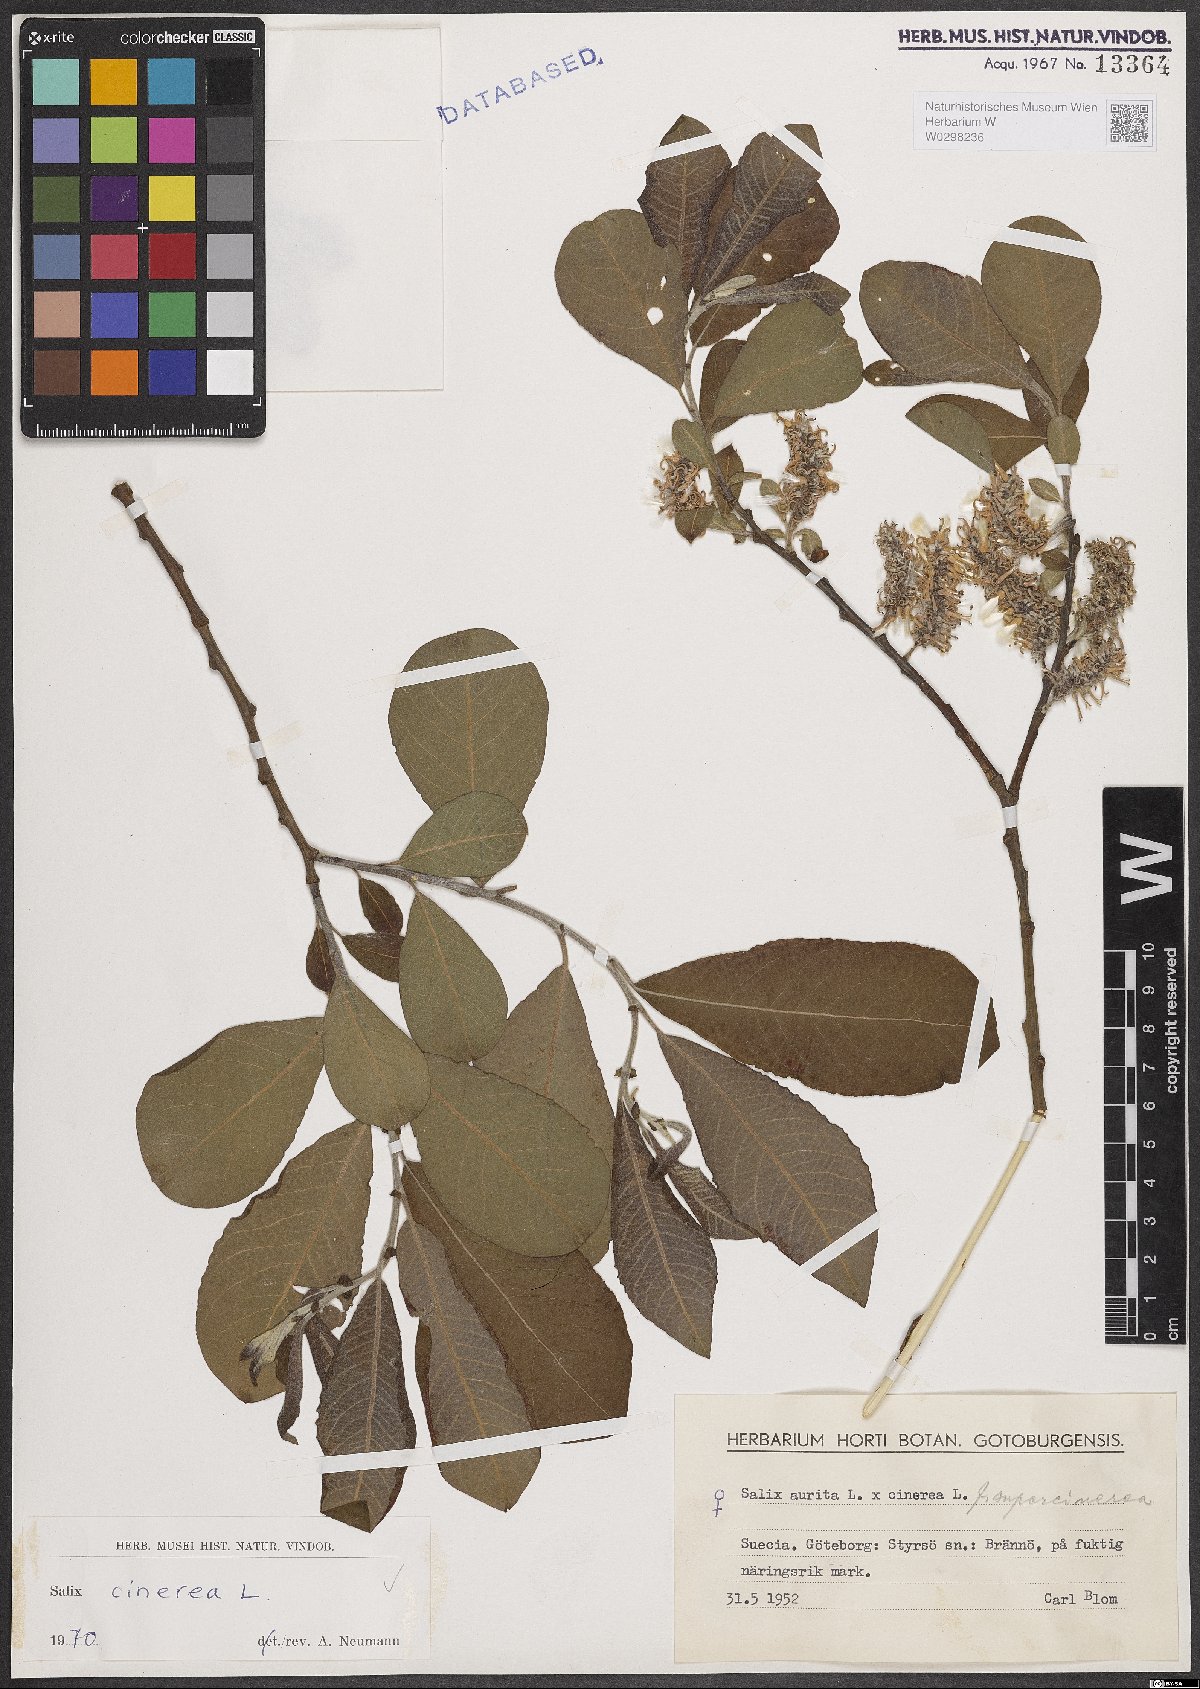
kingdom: Plantae
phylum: Tracheophyta
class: Magnoliopsida
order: Malpighiales
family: Salicaceae
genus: Salix
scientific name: Salix cinerea
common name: Common sallow
